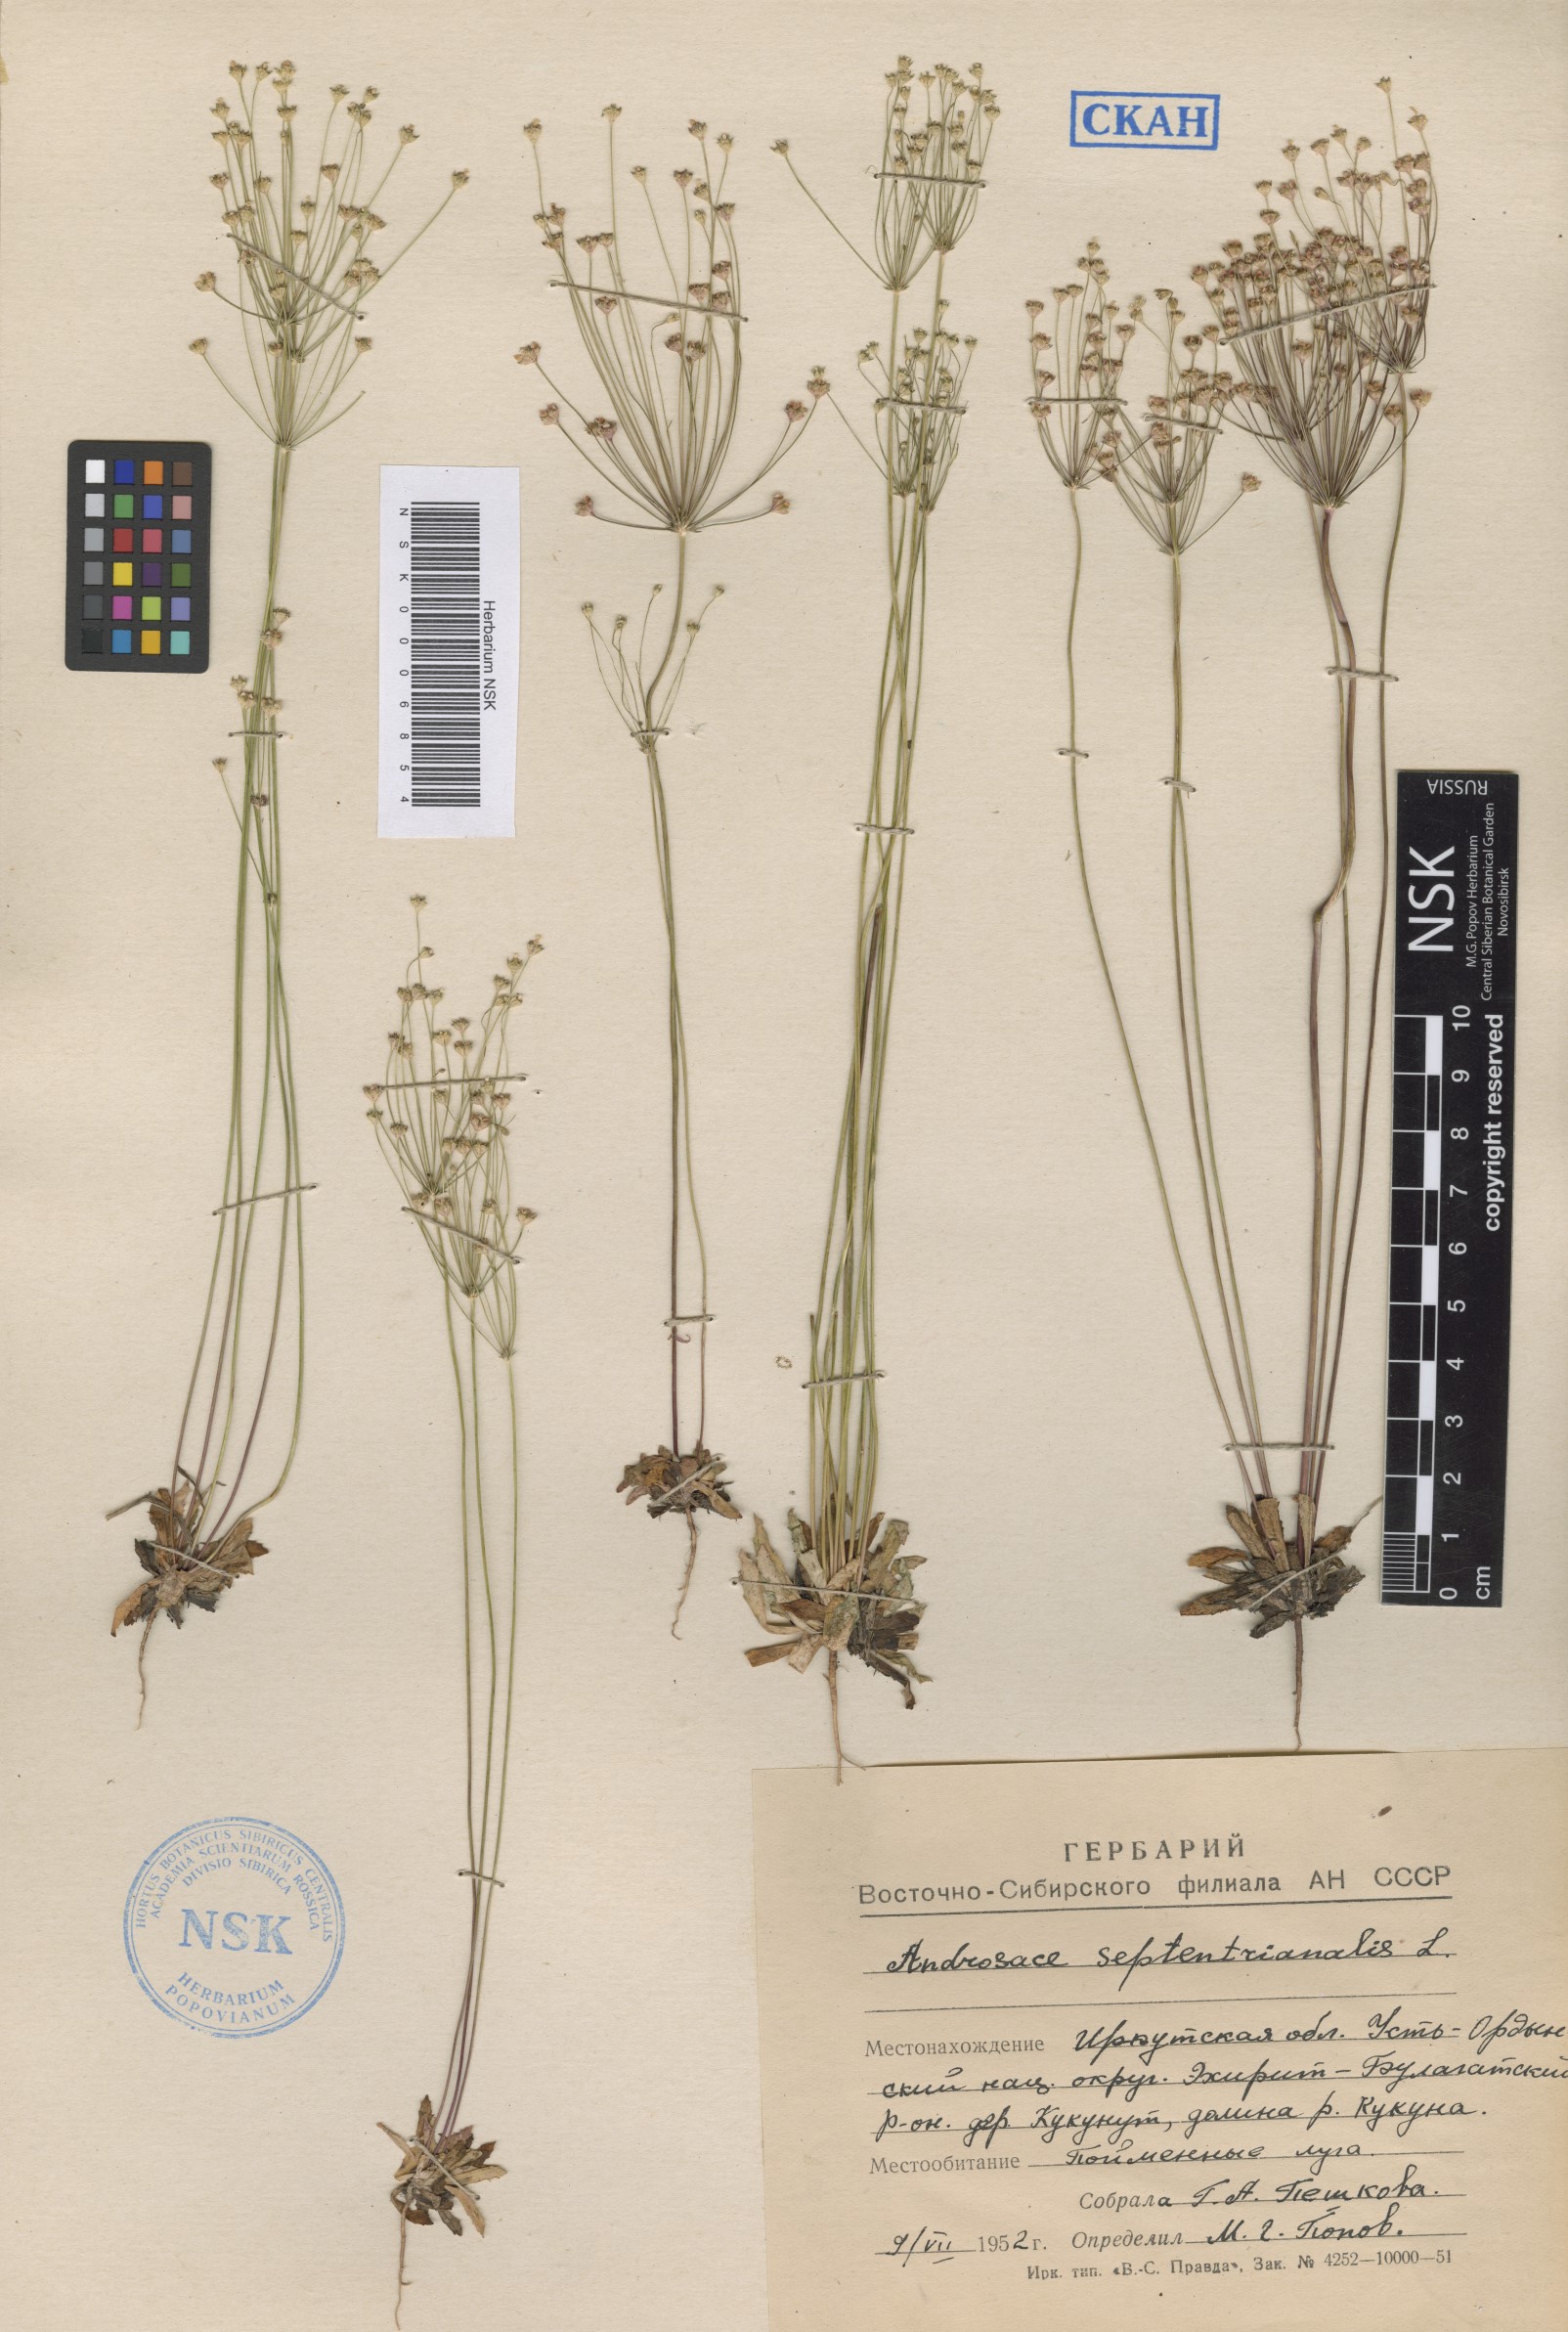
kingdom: Plantae
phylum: Tracheophyta
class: Magnoliopsida
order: Ericales
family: Primulaceae
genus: Androsace
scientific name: Androsace septentrionalis
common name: Hairy northern fairy-candelabra
